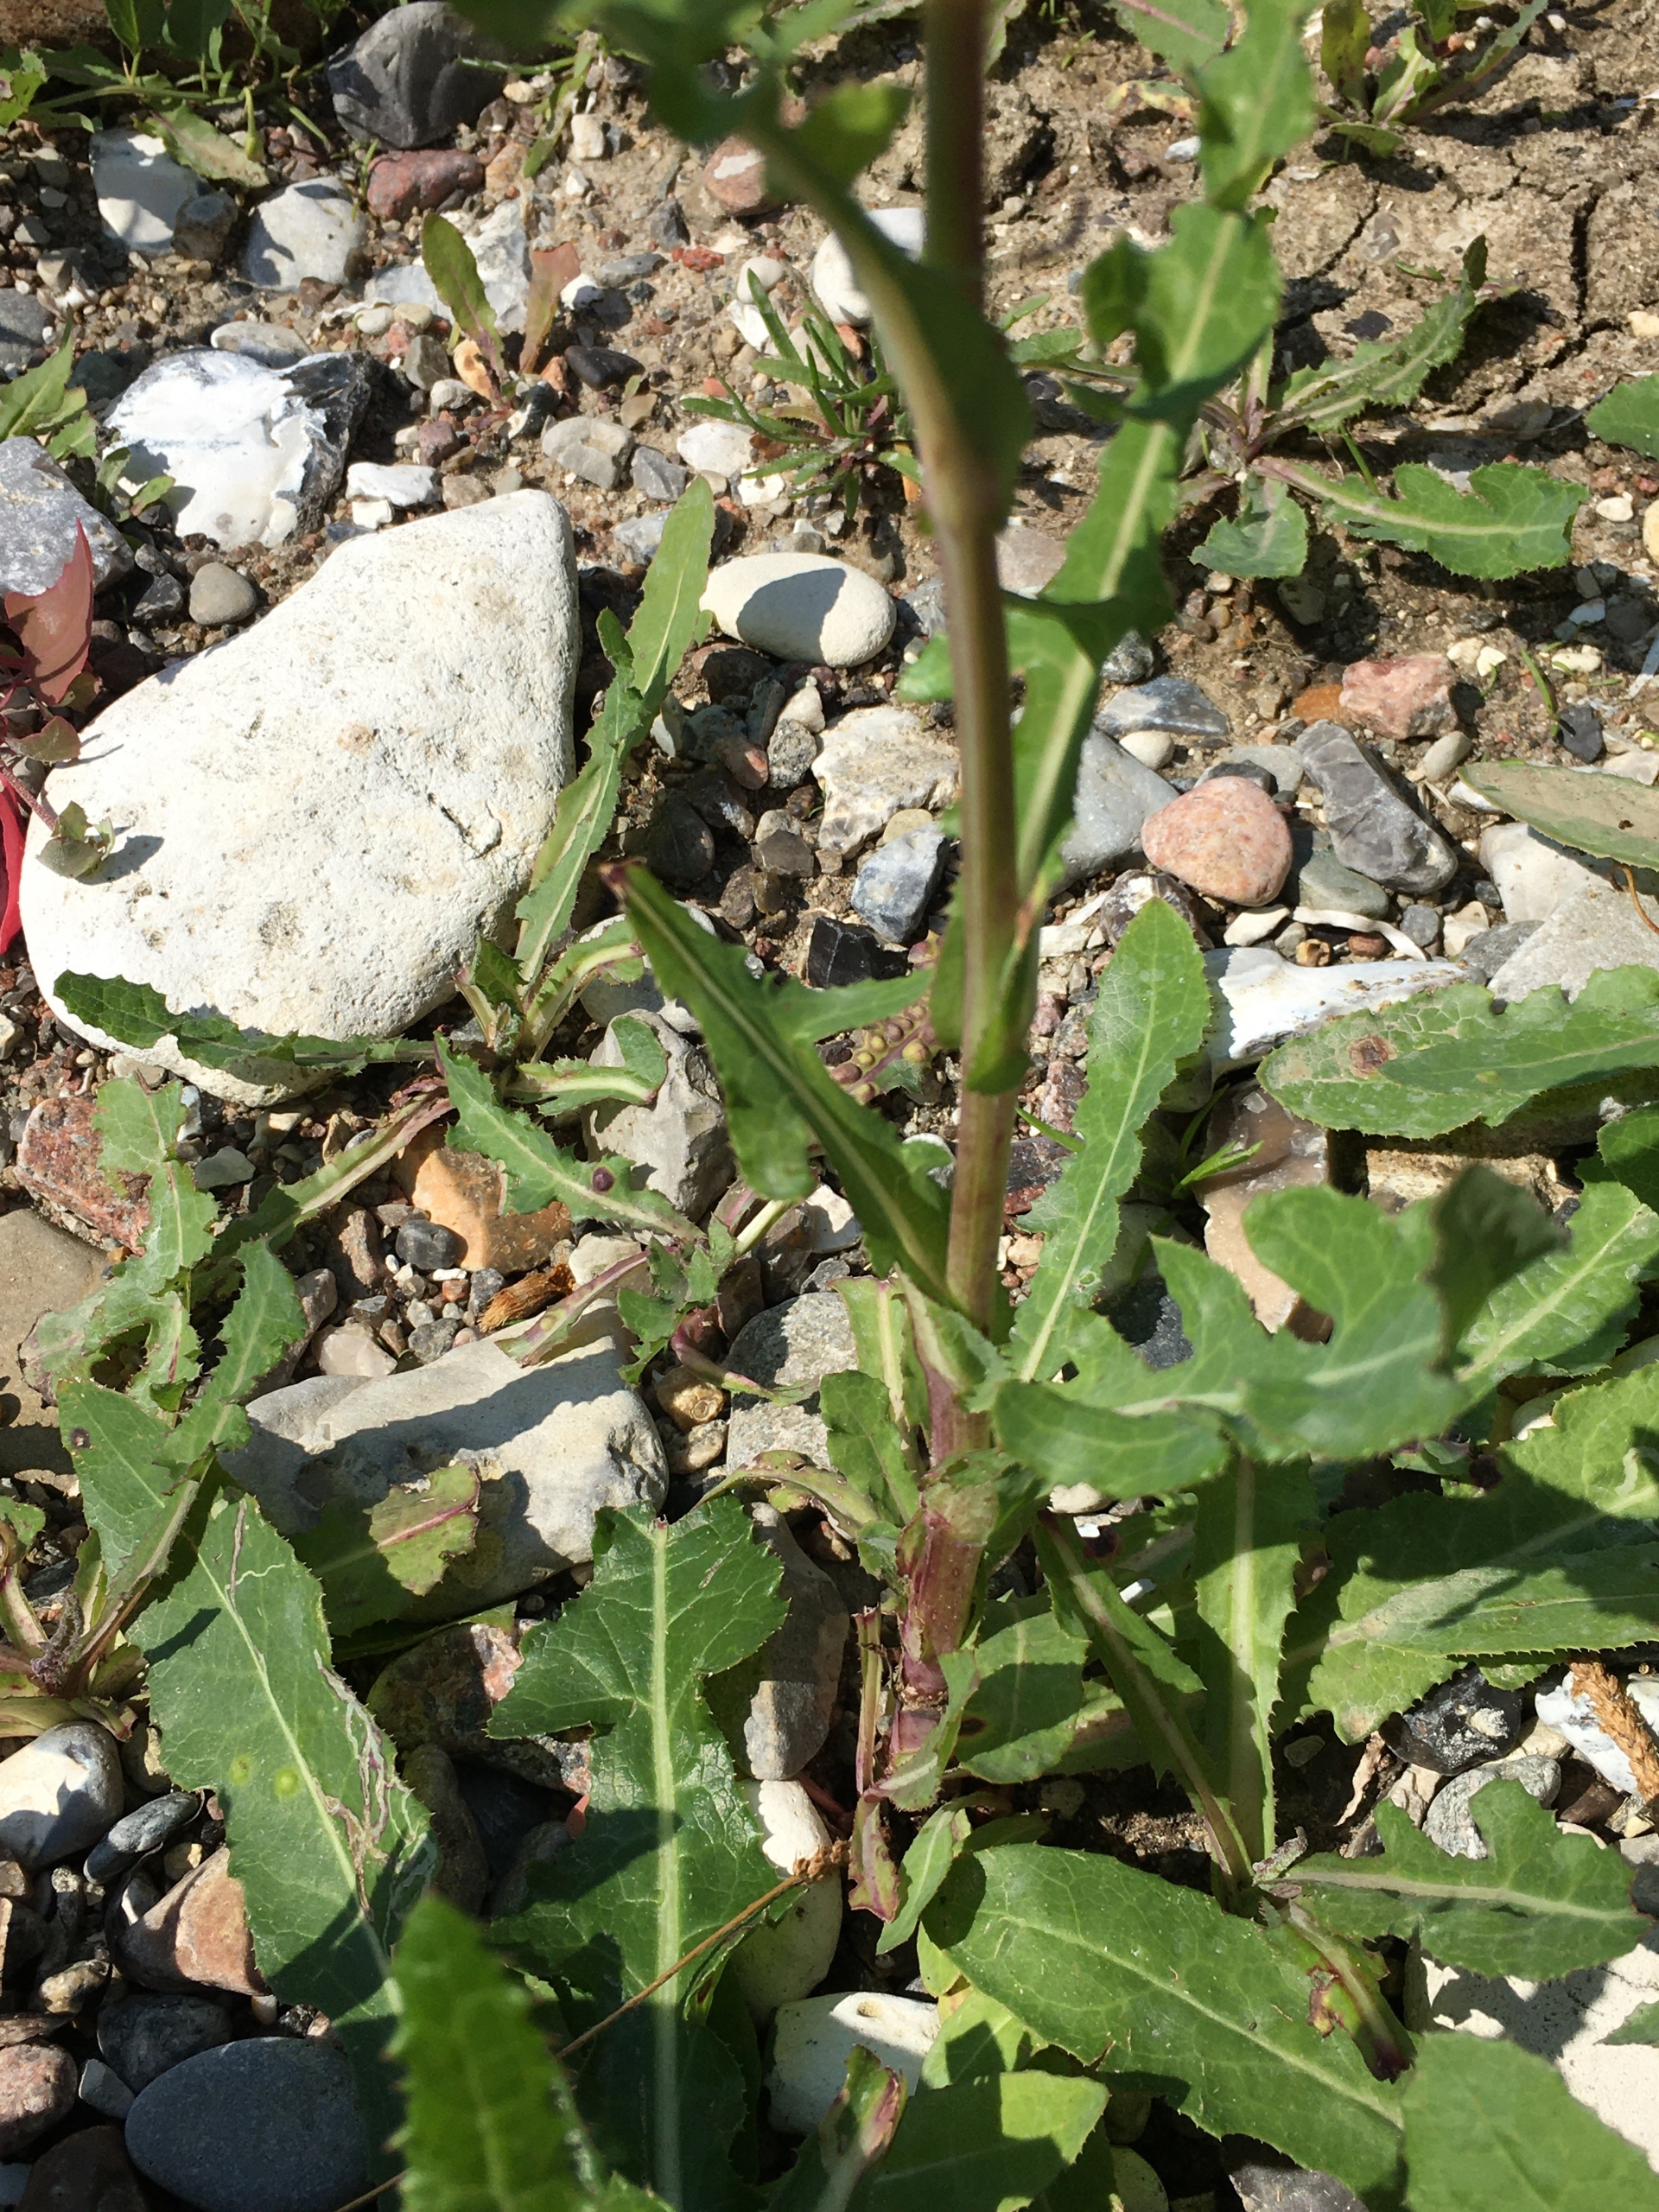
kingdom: Plantae
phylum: Tracheophyta
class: Magnoliopsida
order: Asterales
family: Asteraceae
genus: Sonchus
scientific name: Sonchus arvensis
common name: Ager-svinemælk
